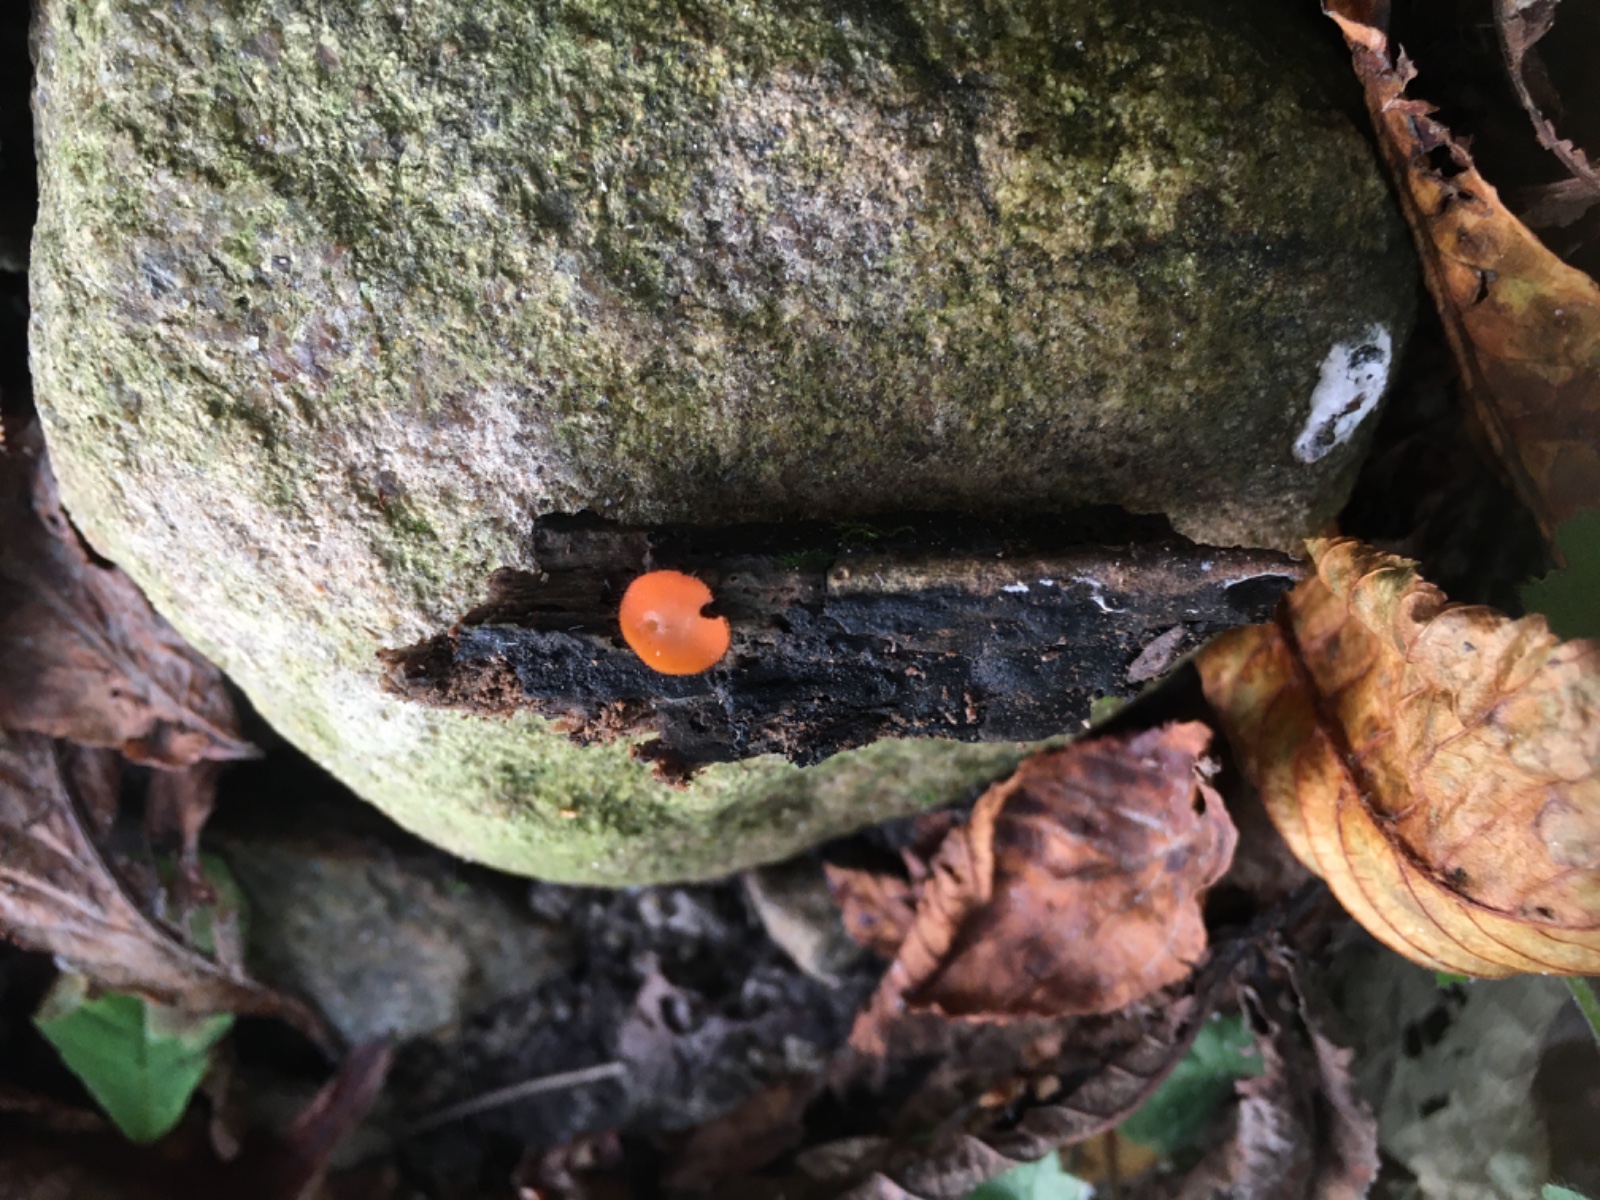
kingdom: Fungi
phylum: Ascomycota
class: Pezizomycetes
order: Pezizales
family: Pyronemataceae
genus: Scutellinia
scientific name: Scutellinia
